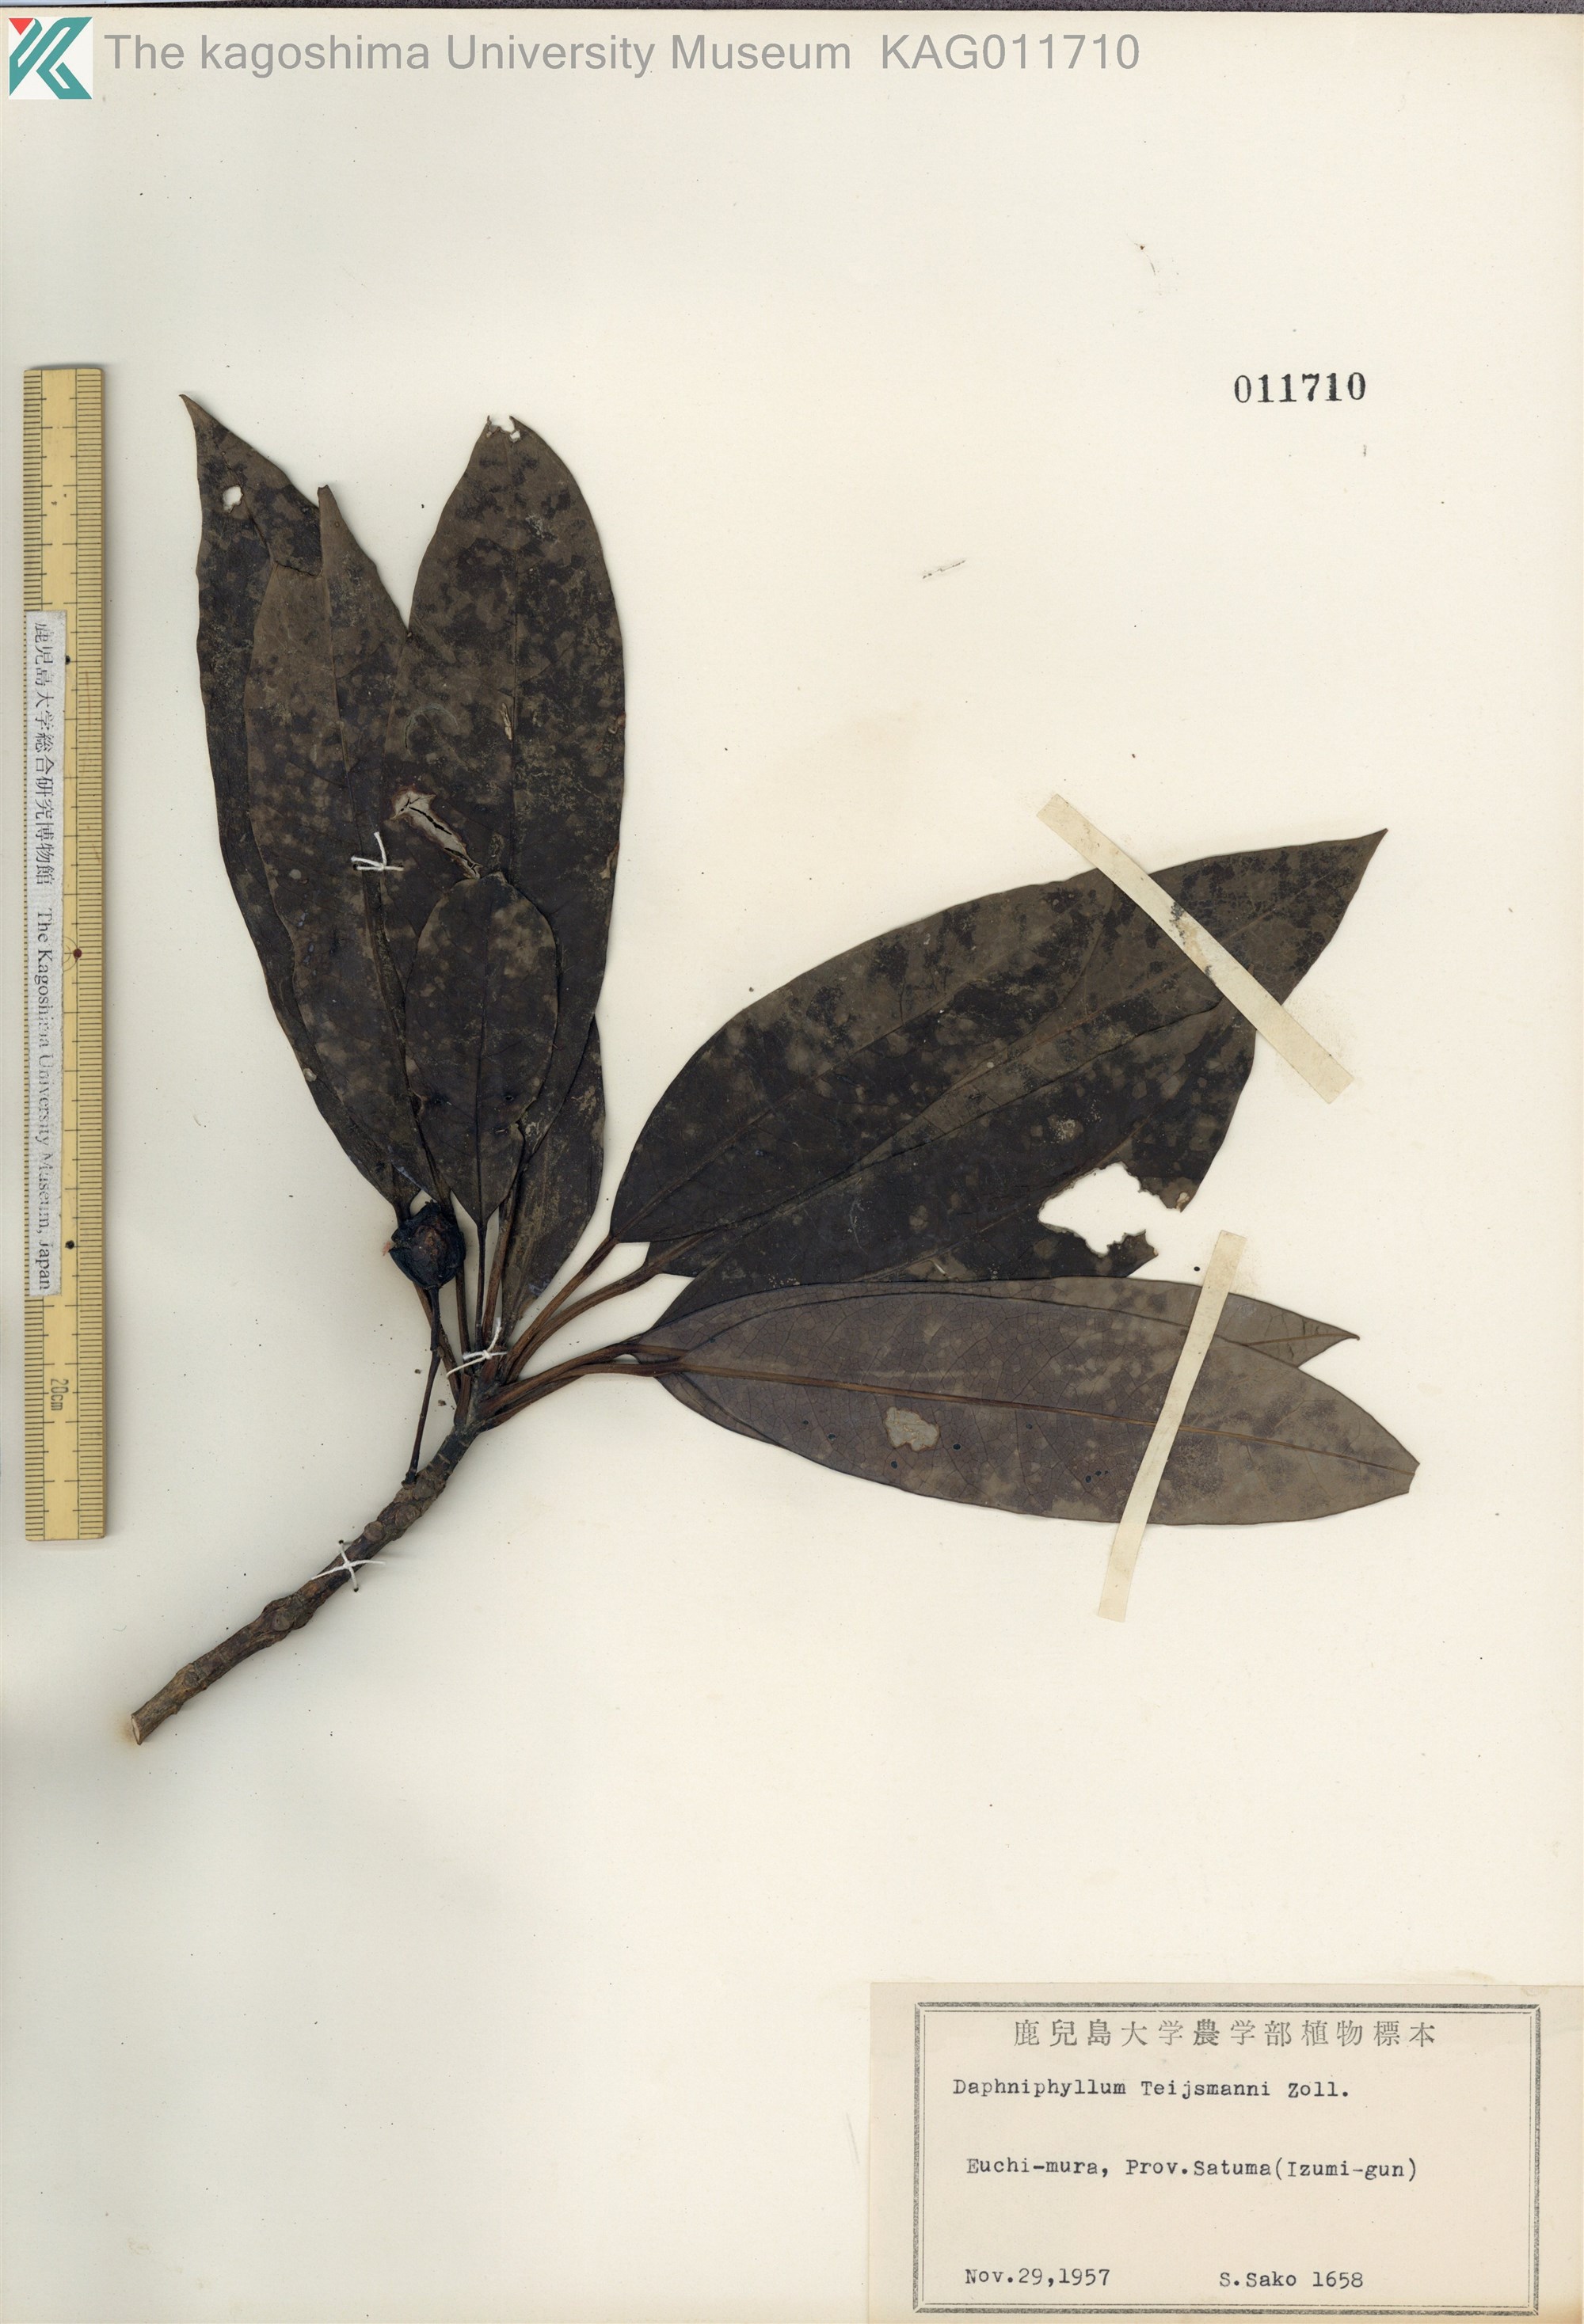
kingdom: Plantae
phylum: Tracheophyta
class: Magnoliopsida
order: Saxifragales
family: Daphniphyllaceae
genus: Daphniphyllum
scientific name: Daphniphyllum teijsmannii
